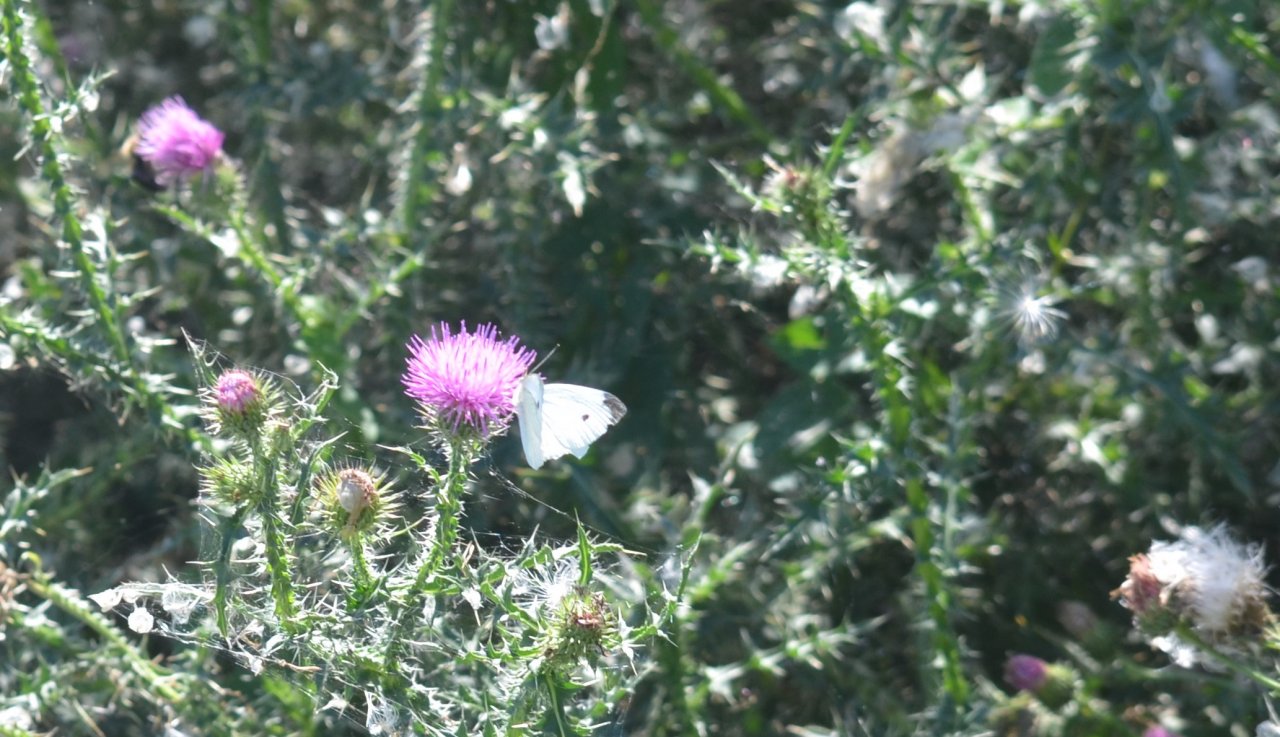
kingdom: Animalia
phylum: Arthropoda
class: Insecta
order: Lepidoptera
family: Pieridae
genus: Pieris
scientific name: Pieris rapae
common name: Cabbage White
